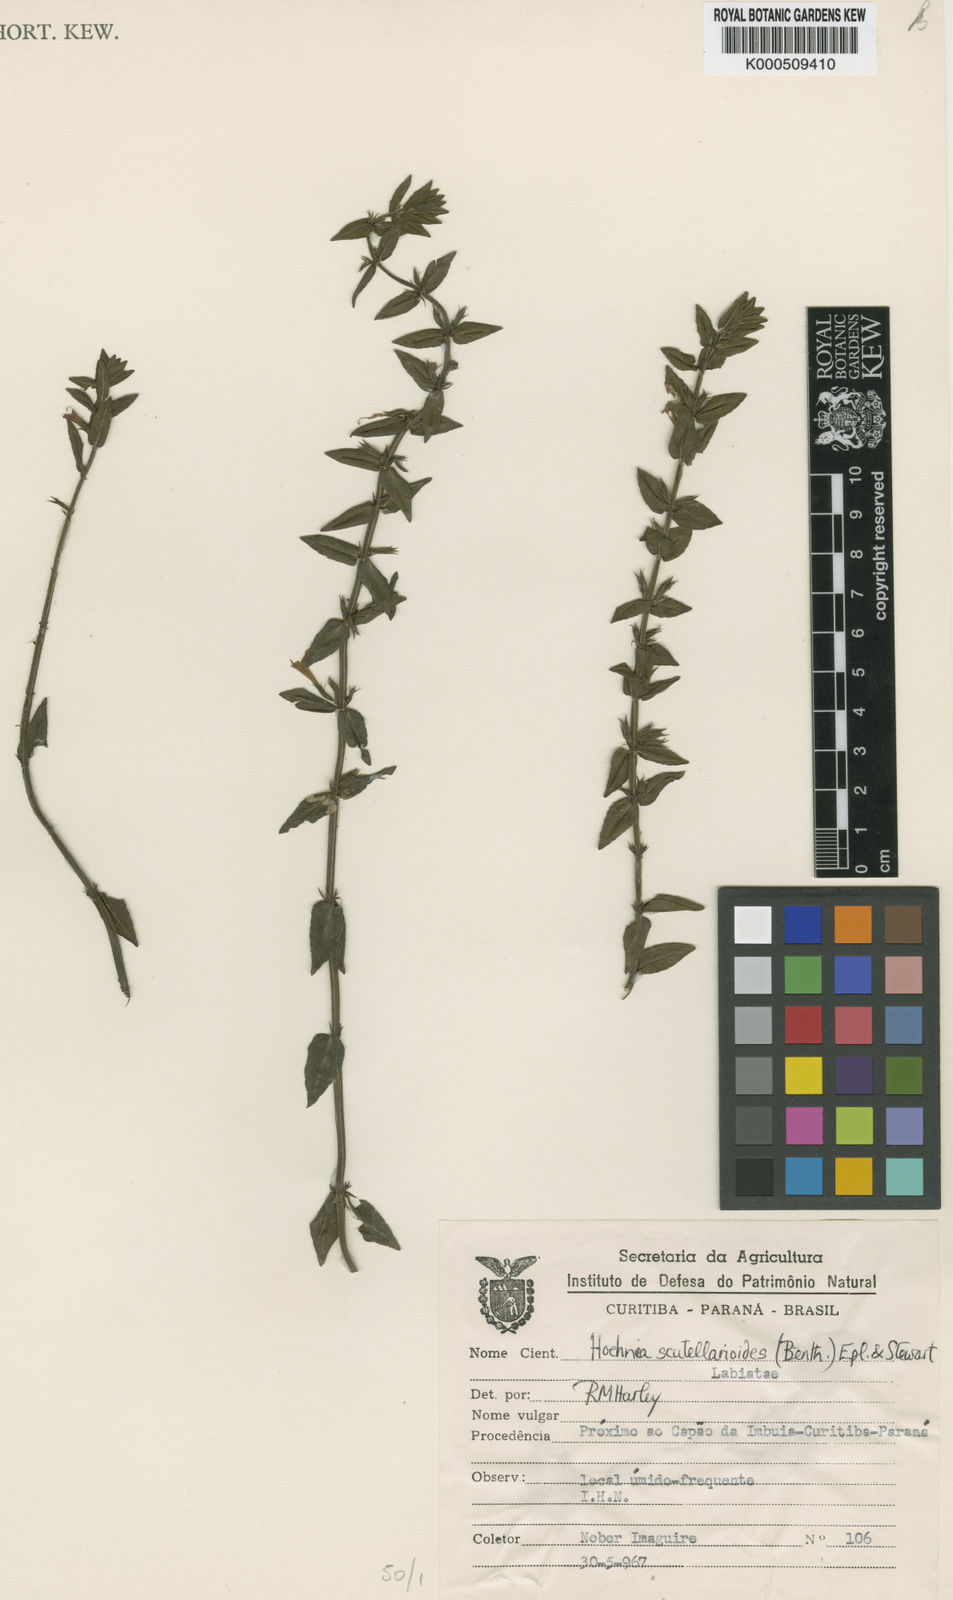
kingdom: Plantae
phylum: Tracheophyta
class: Magnoliopsida
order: Lamiales
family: Lamiaceae
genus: Hoehnea
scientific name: Hoehnea scutellarioides
